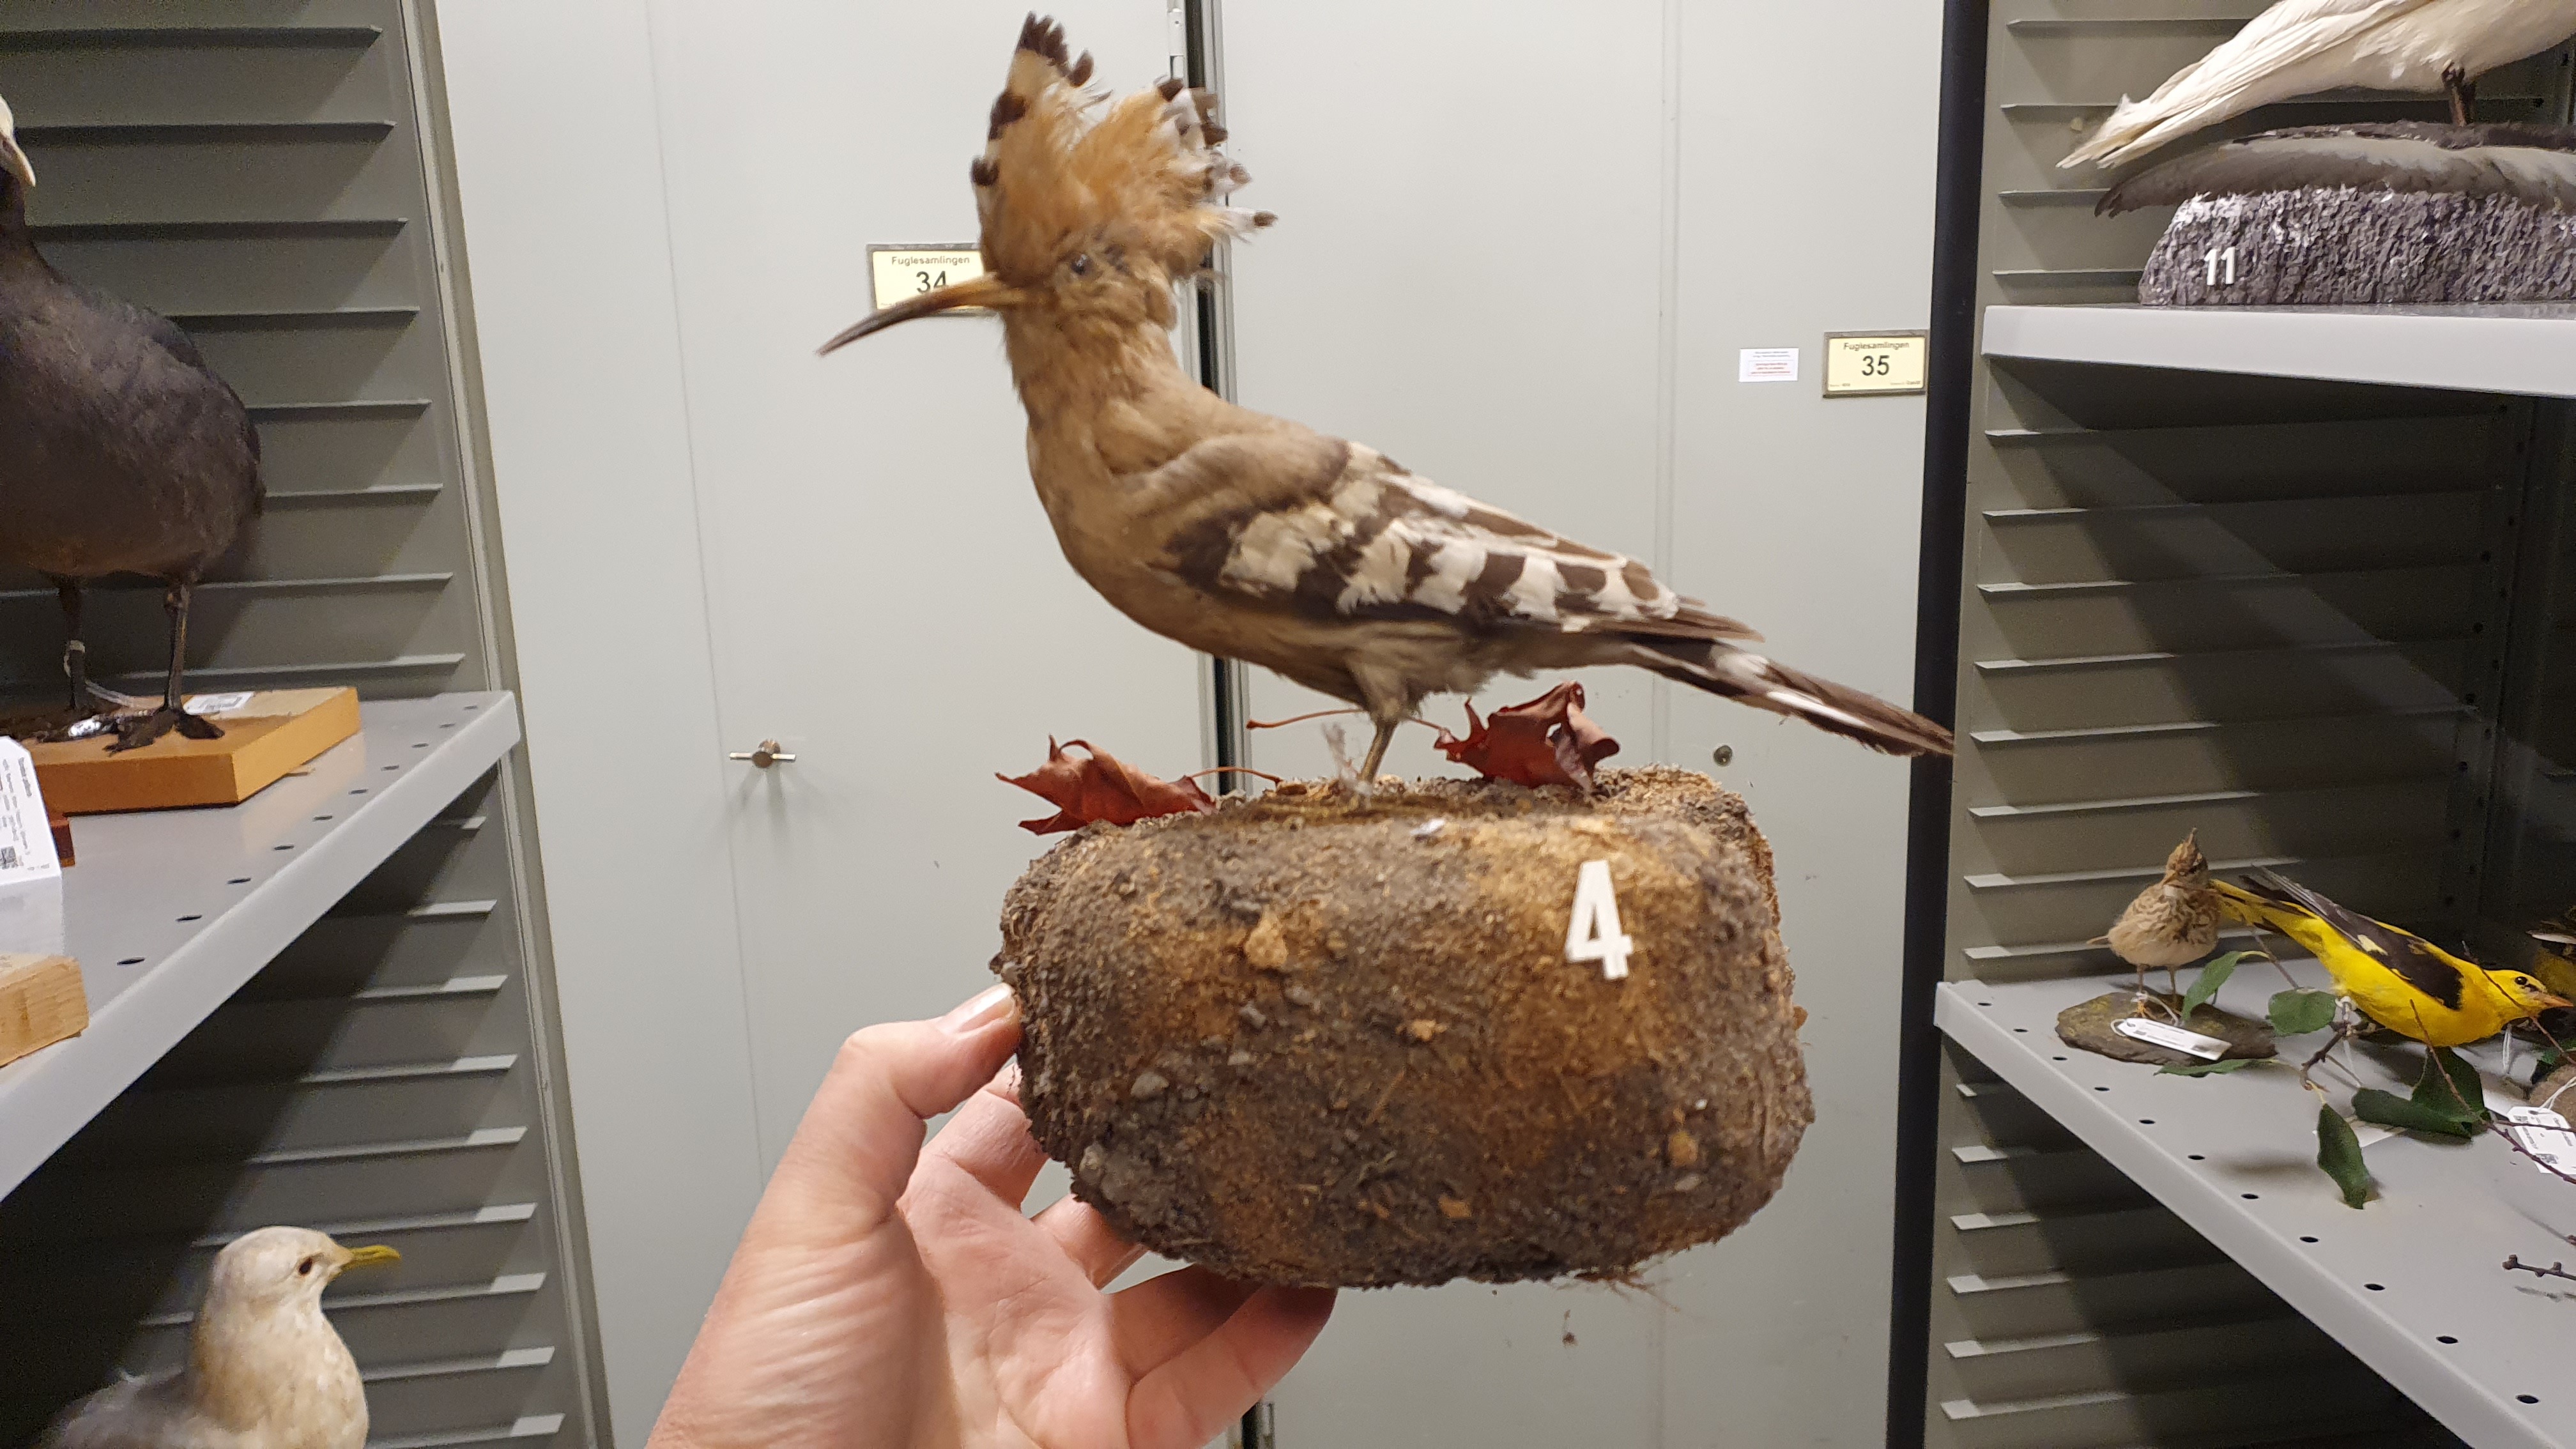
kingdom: Animalia
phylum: Chordata
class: Aves
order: Bucerotiformes
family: Upupidae
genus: Upupa
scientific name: Upupa epops
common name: Eurasian hoopoe
